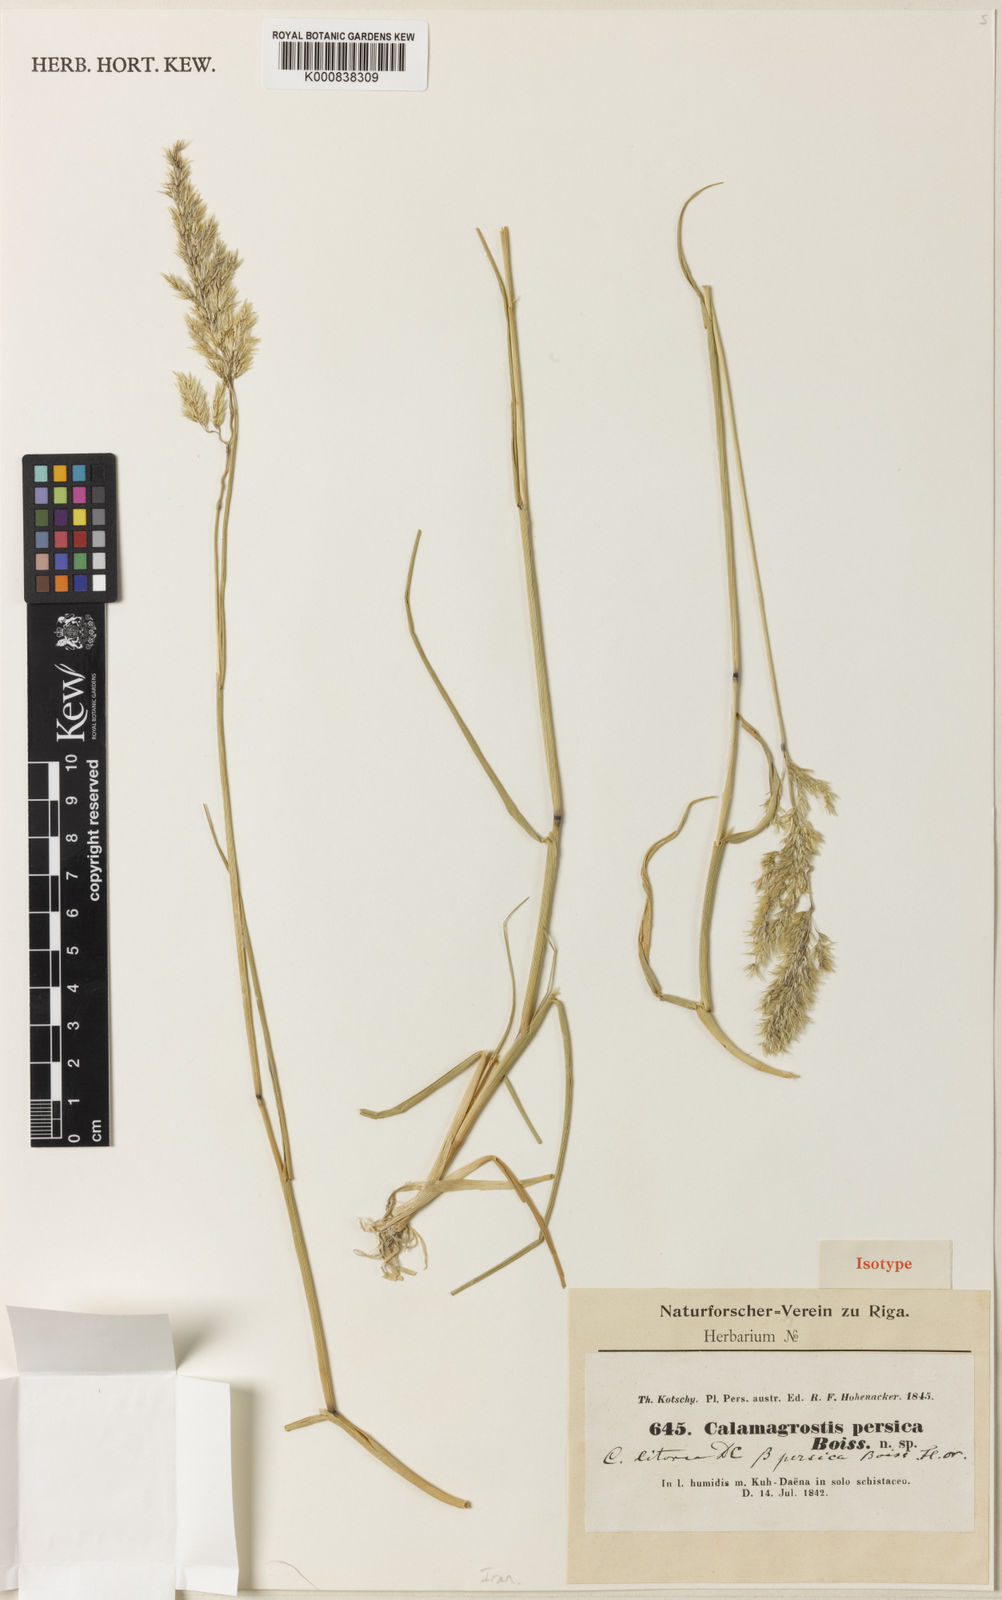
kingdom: Plantae
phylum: Tracheophyta
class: Liliopsida
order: Poales
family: Poaceae
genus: Calamagrostis
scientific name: Calamagrostis pseudophragmites
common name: Coastal small-reed
